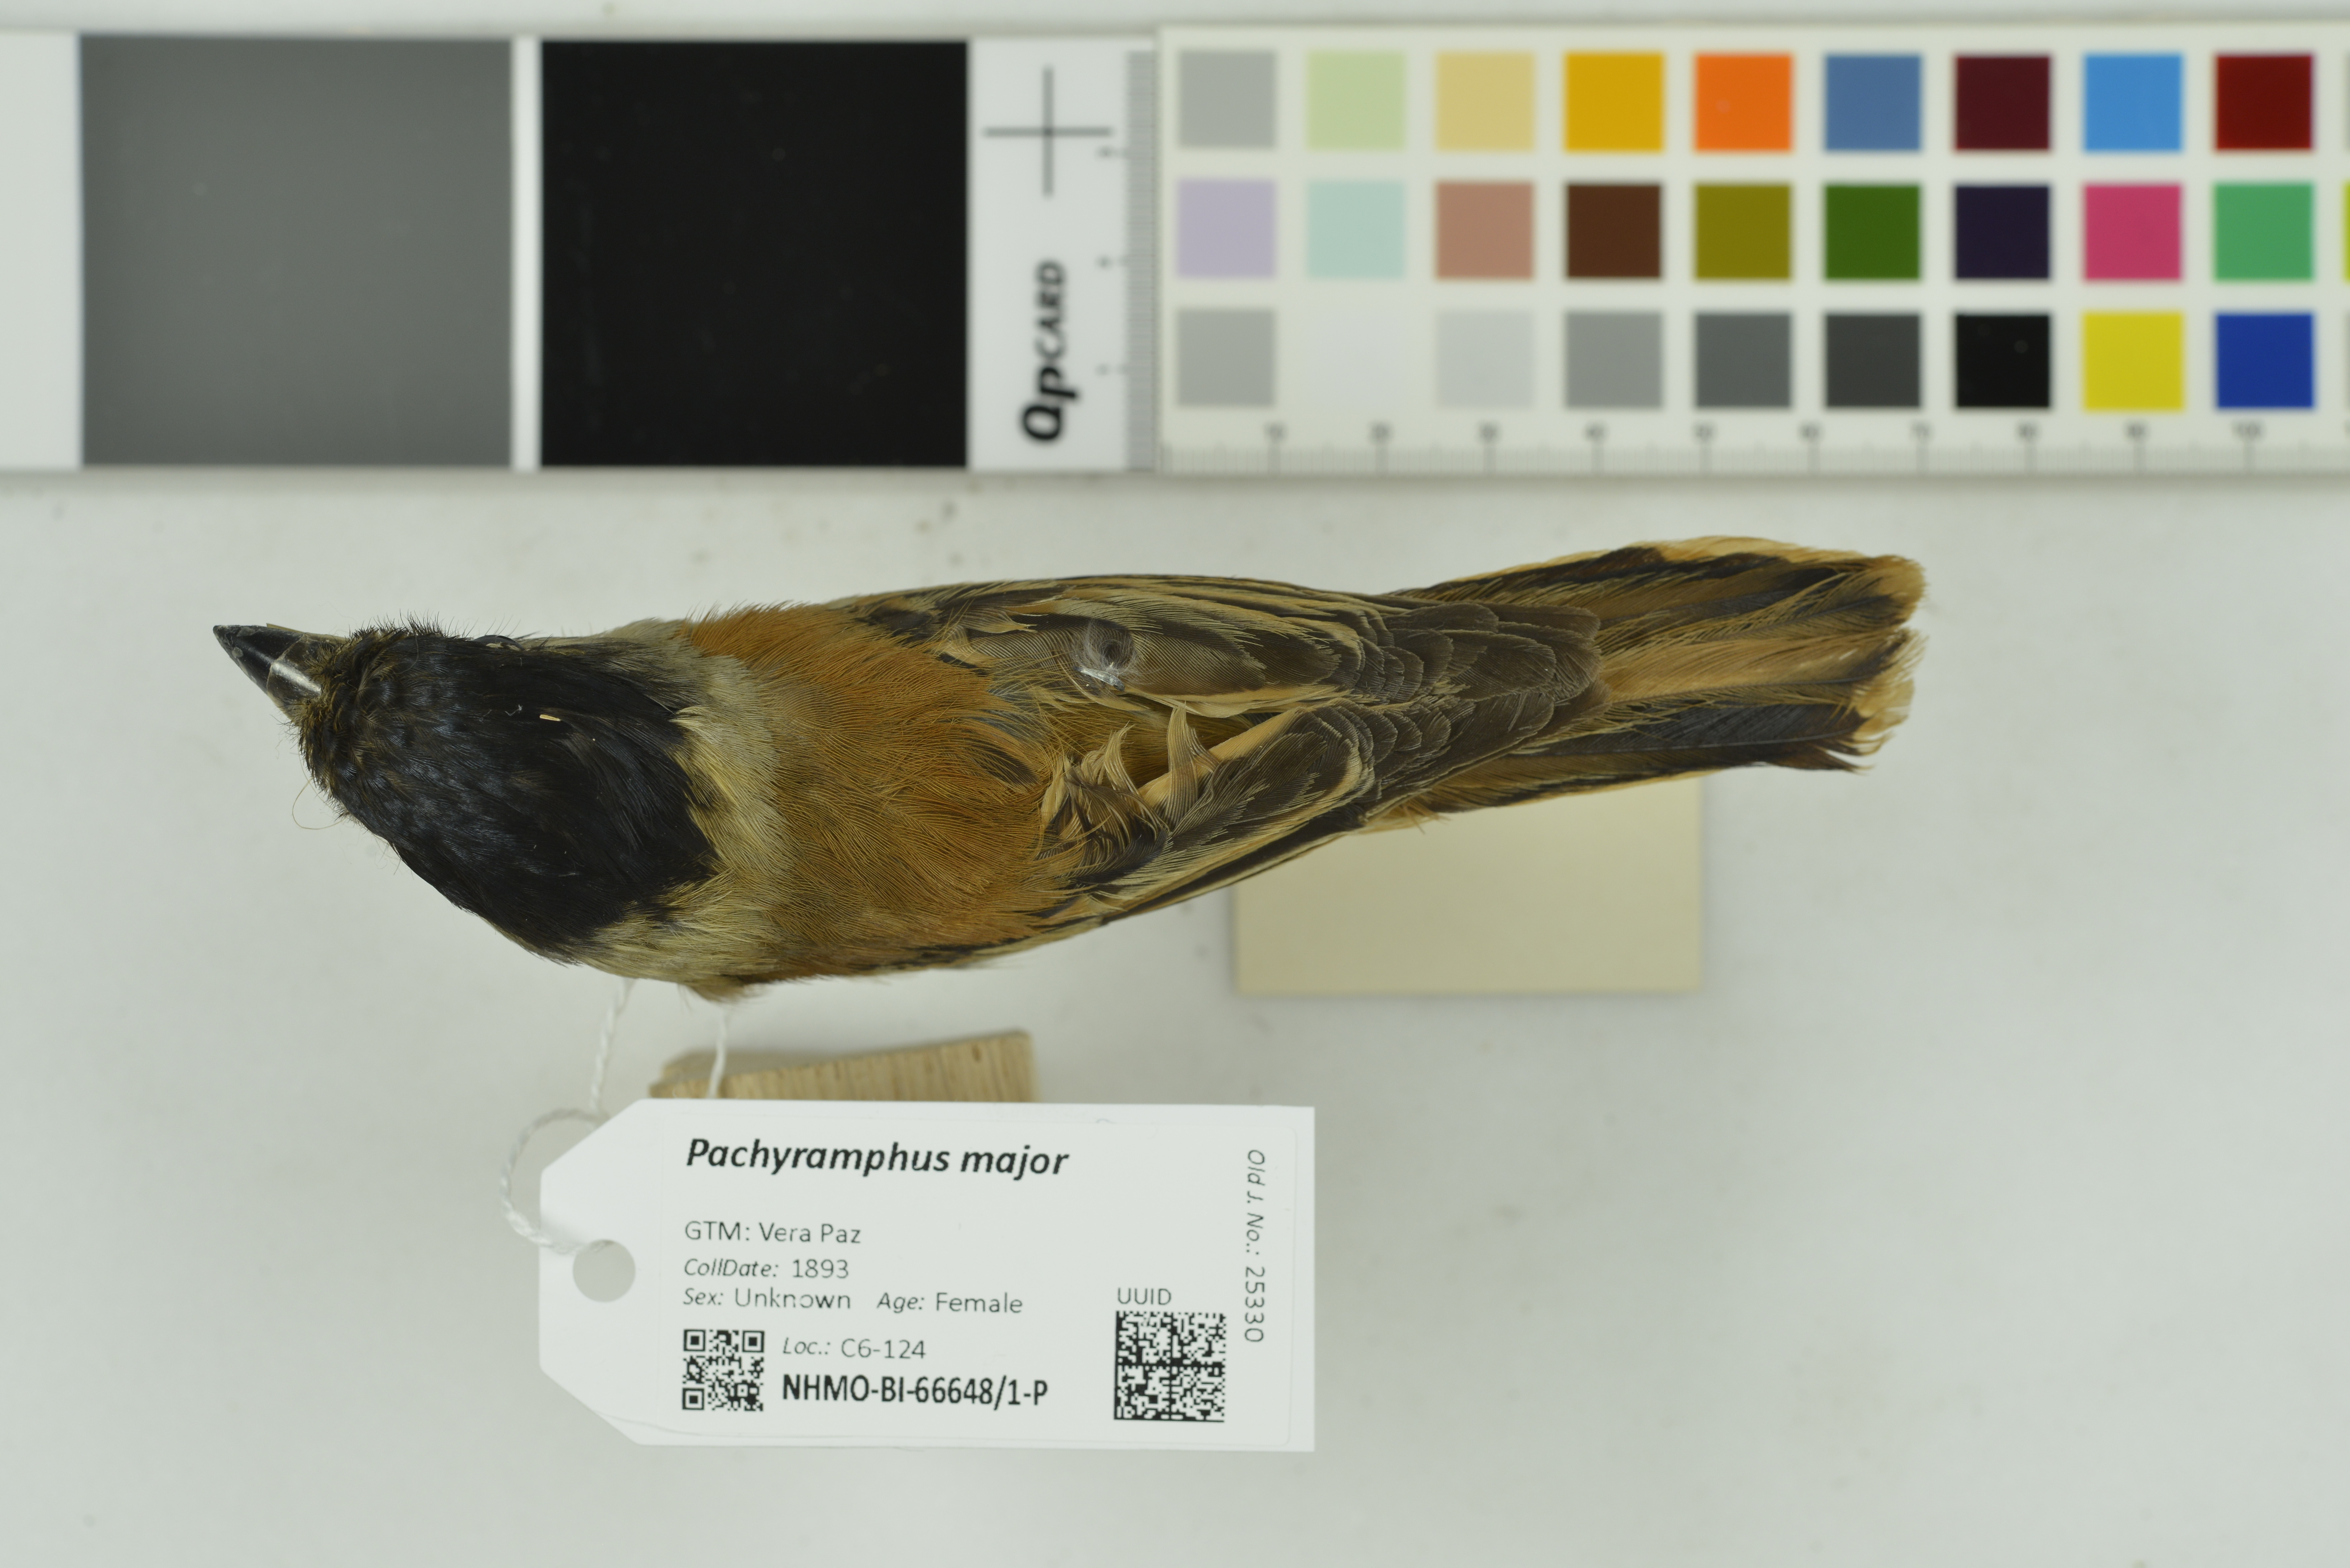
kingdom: Animalia
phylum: Chordata
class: Aves
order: Passeriformes
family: Cotingidae
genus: Pachyramphus
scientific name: Pachyramphus major
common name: Gray-collared becard
